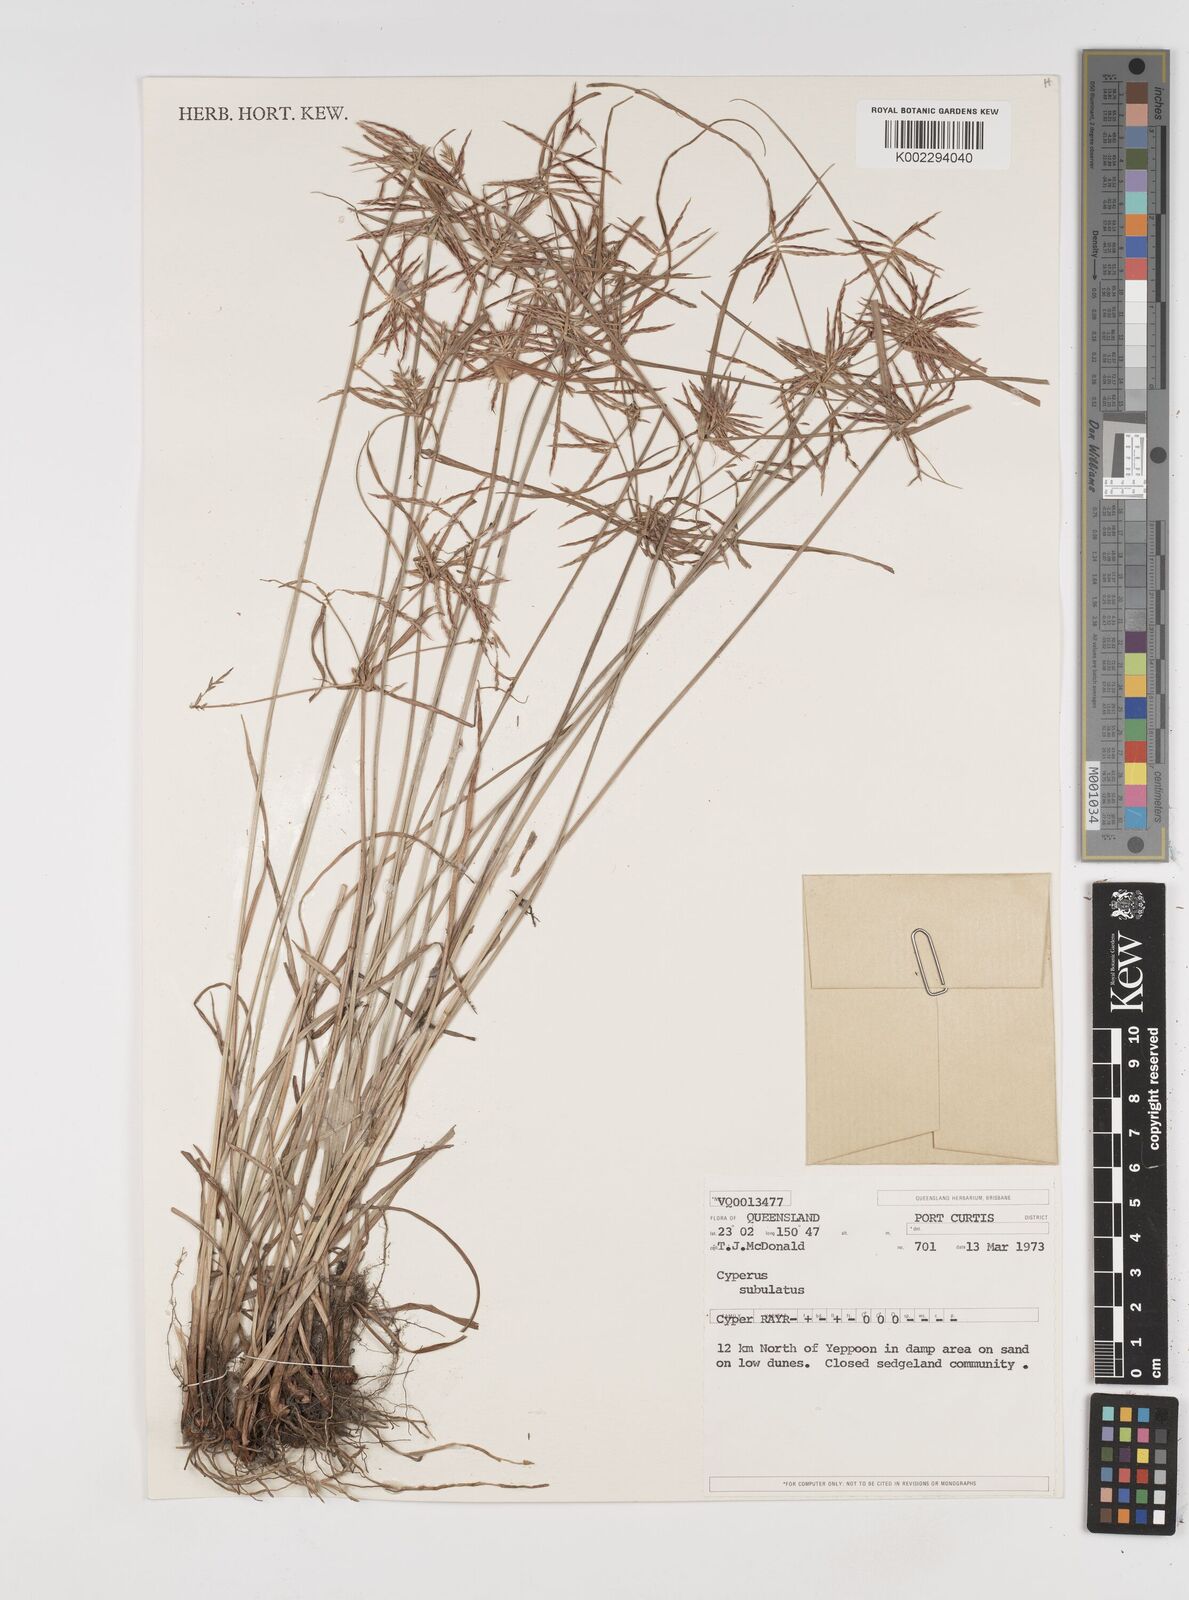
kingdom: Plantae
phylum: Tracheophyta
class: Liliopsida
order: Poales
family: Cyperaceae
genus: Cyperus
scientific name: Cyperus subulatus
